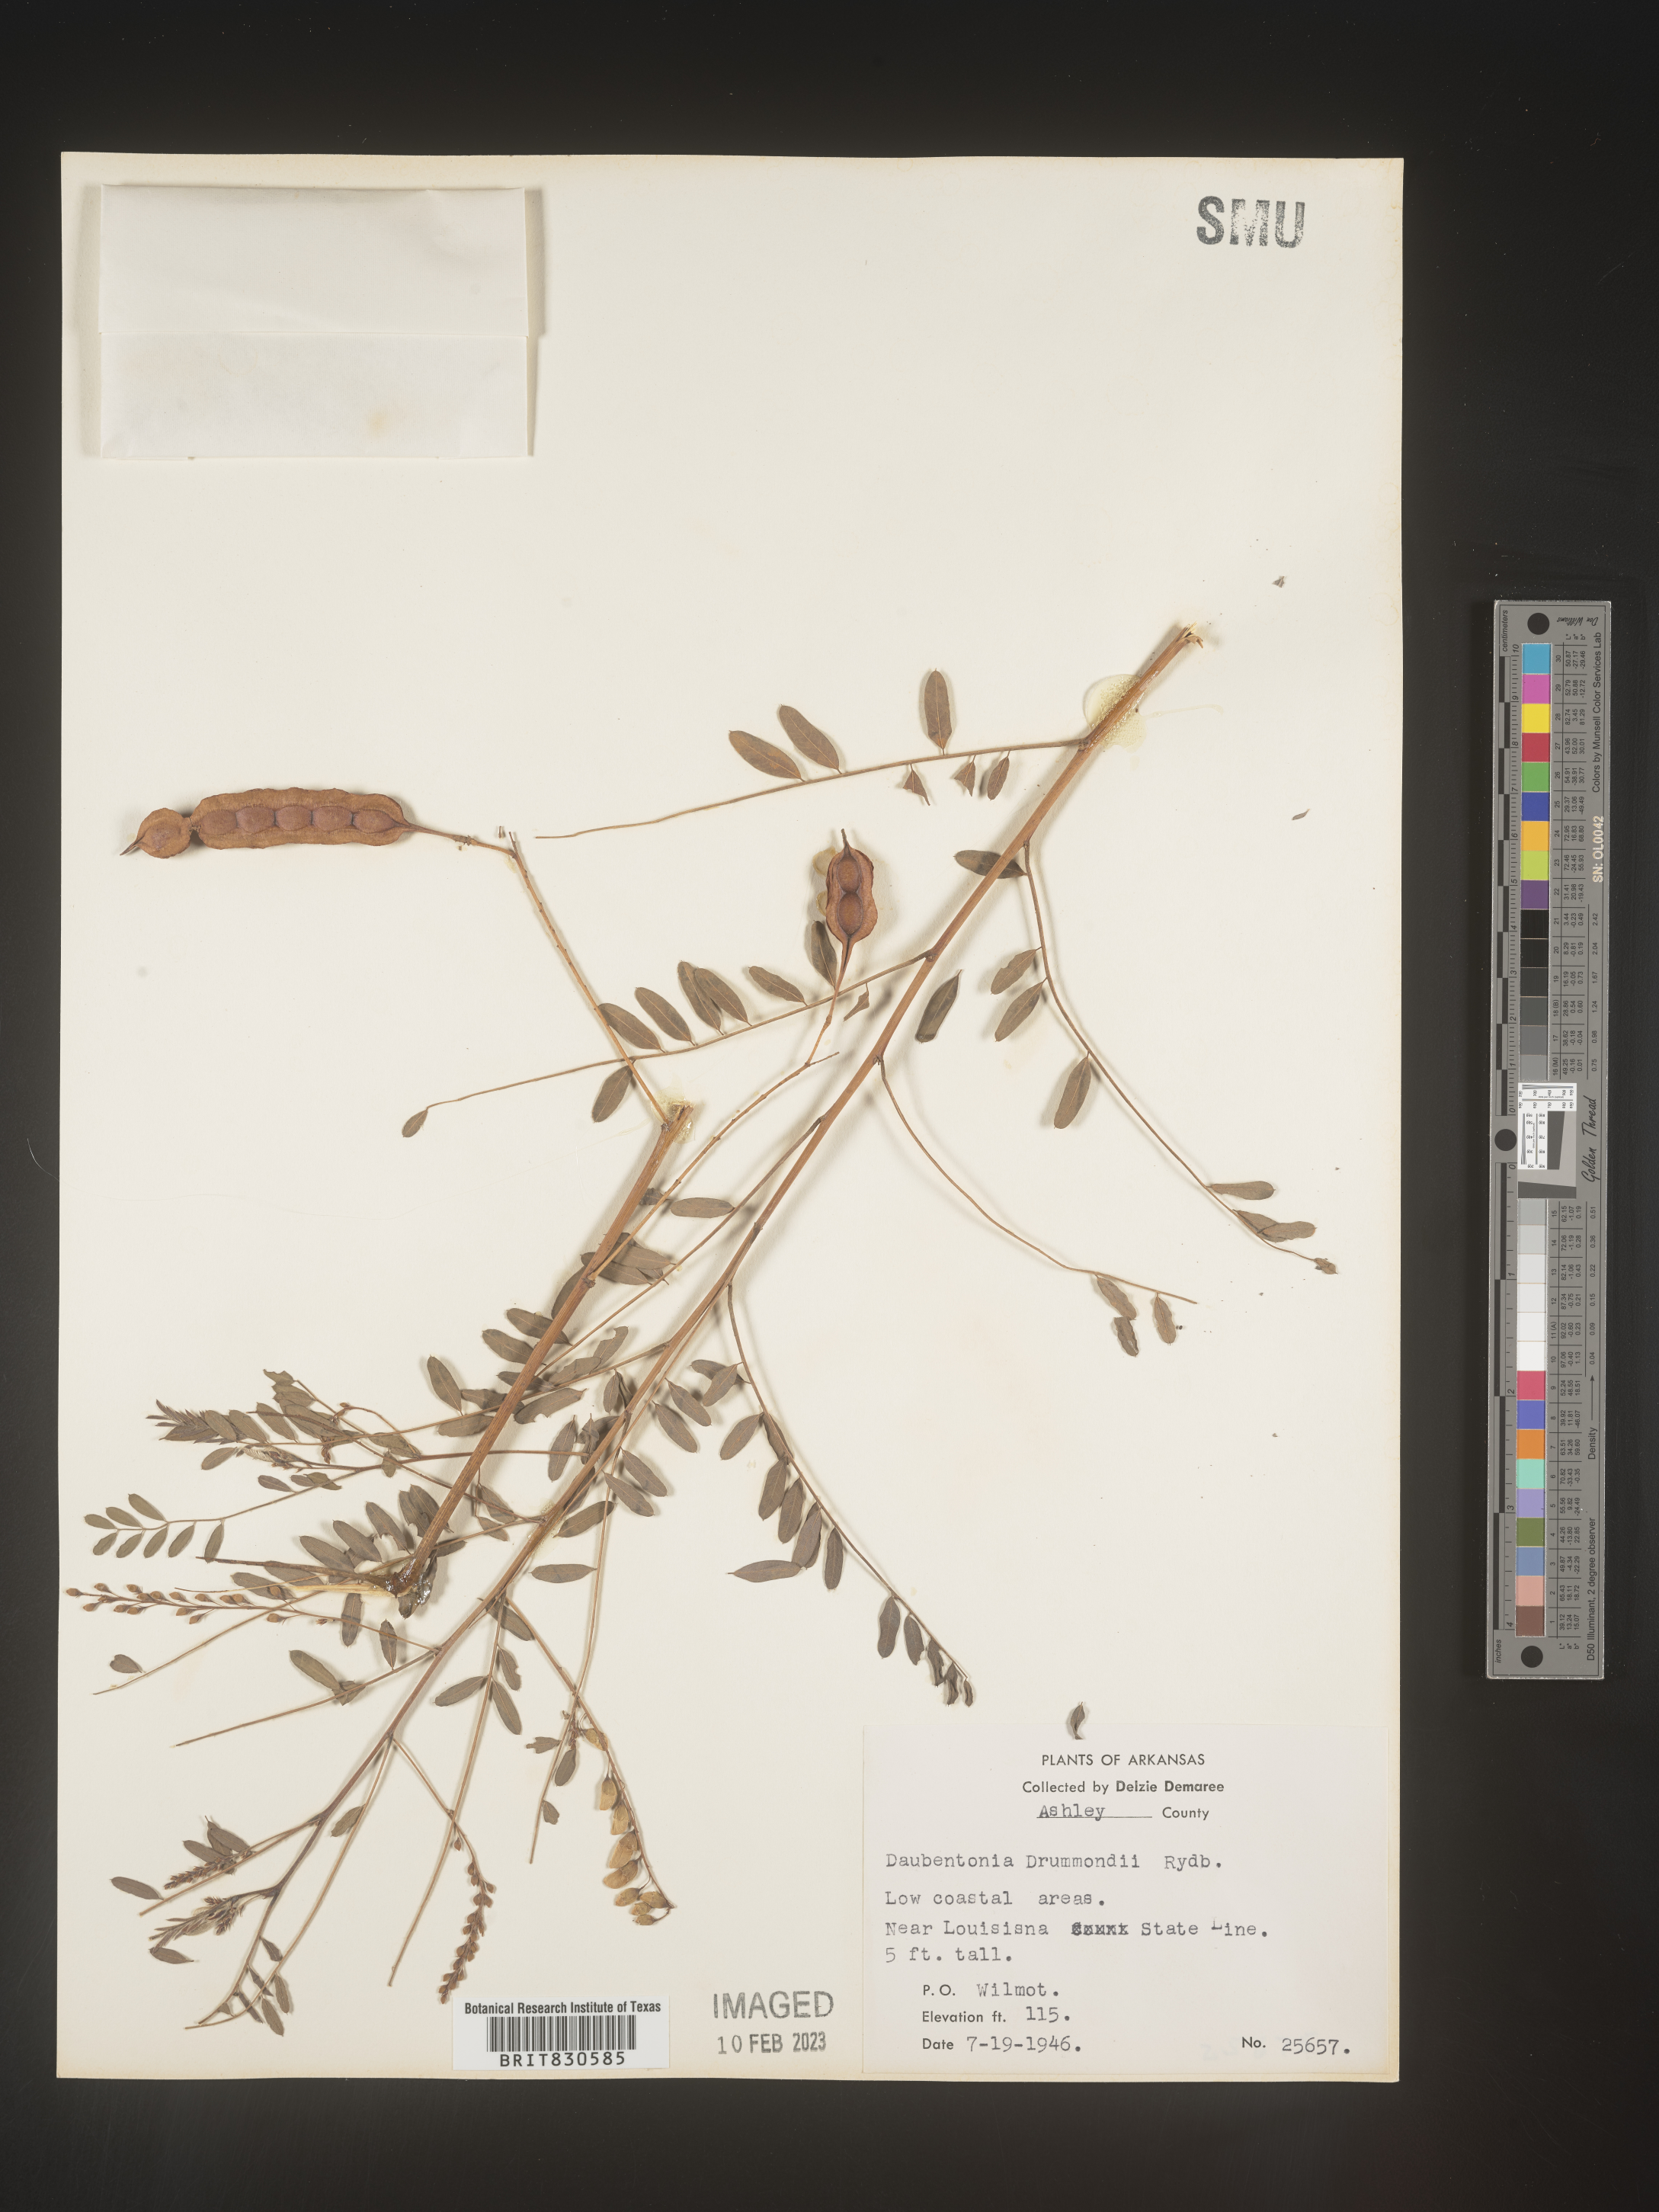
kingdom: Plantae
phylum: Tracheophyta
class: Magnoliopsida
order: Fabales
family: Fabaceae
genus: Sesbania
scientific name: Sesbania drummondii
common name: Poison-bean
